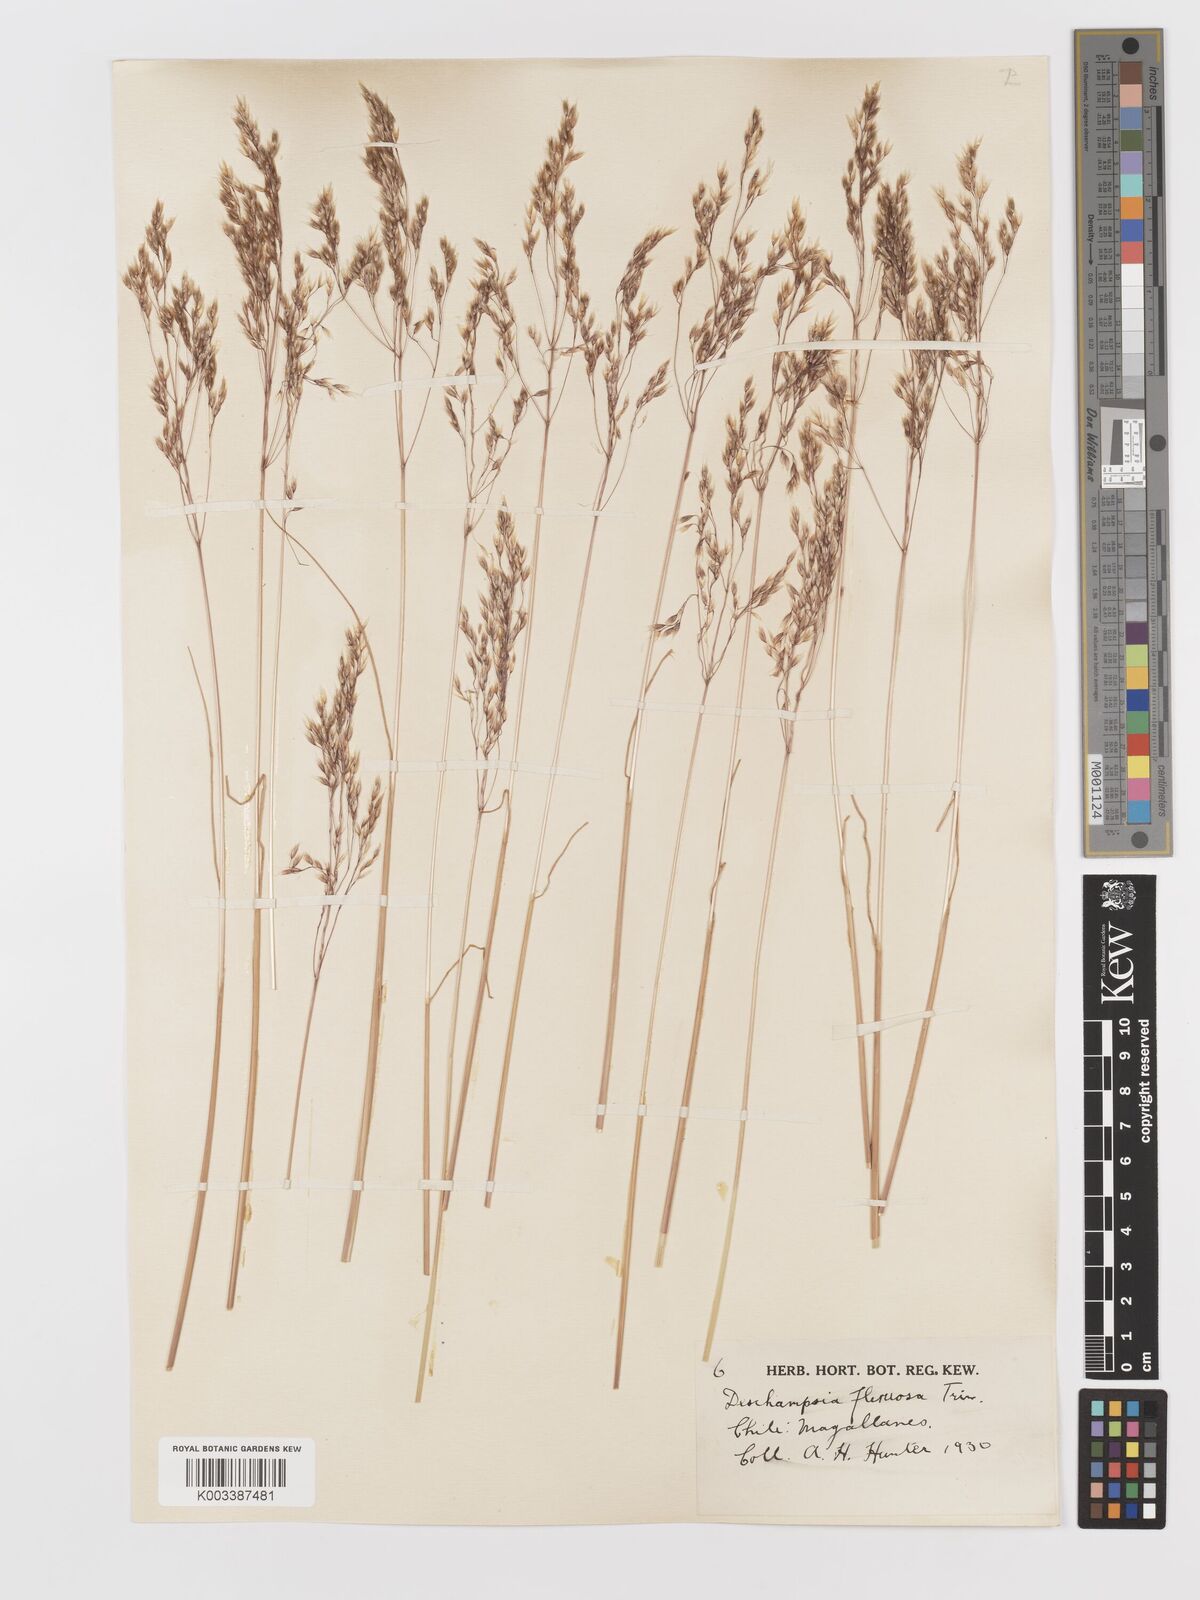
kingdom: Plantae
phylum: Tracheophyta
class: Liliopsida
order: Poales
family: Poaceae
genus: Avenella
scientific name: Avenella flexuosa
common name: Wavy hairgrass
